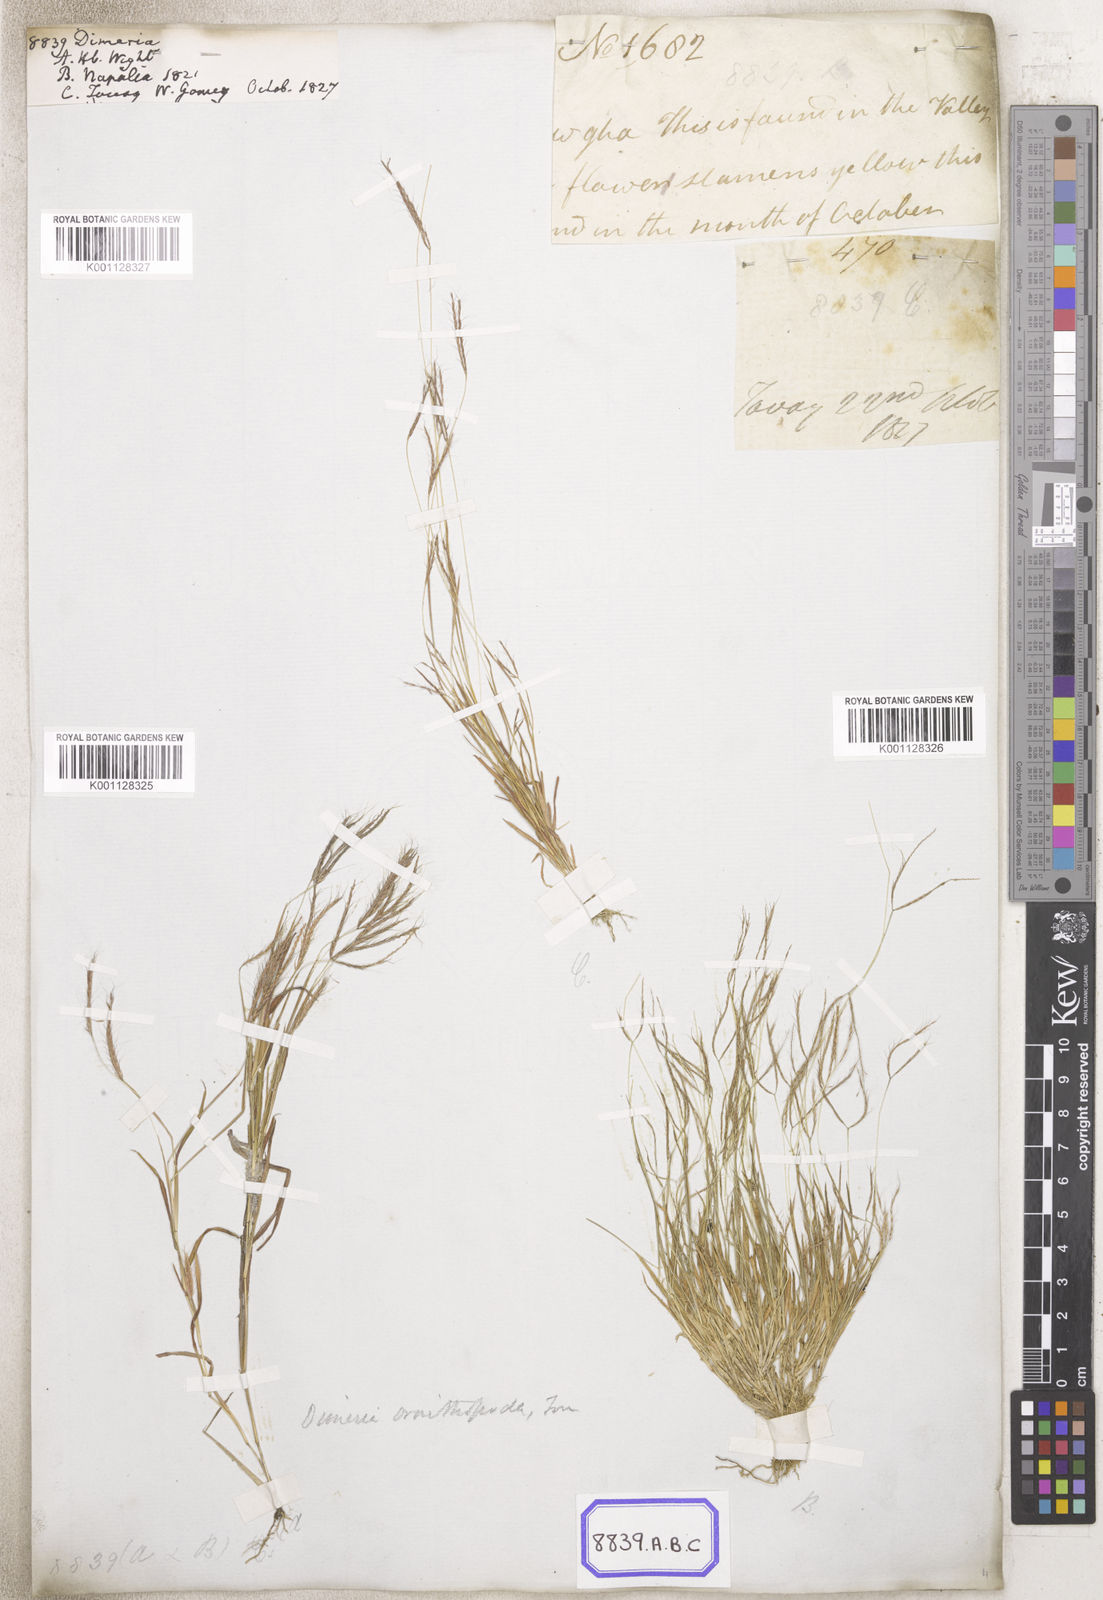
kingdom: Plantae
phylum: Tracheophyta
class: Liliopsida
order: Poales
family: Poaceae
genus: Dimeria
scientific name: Dimeria
